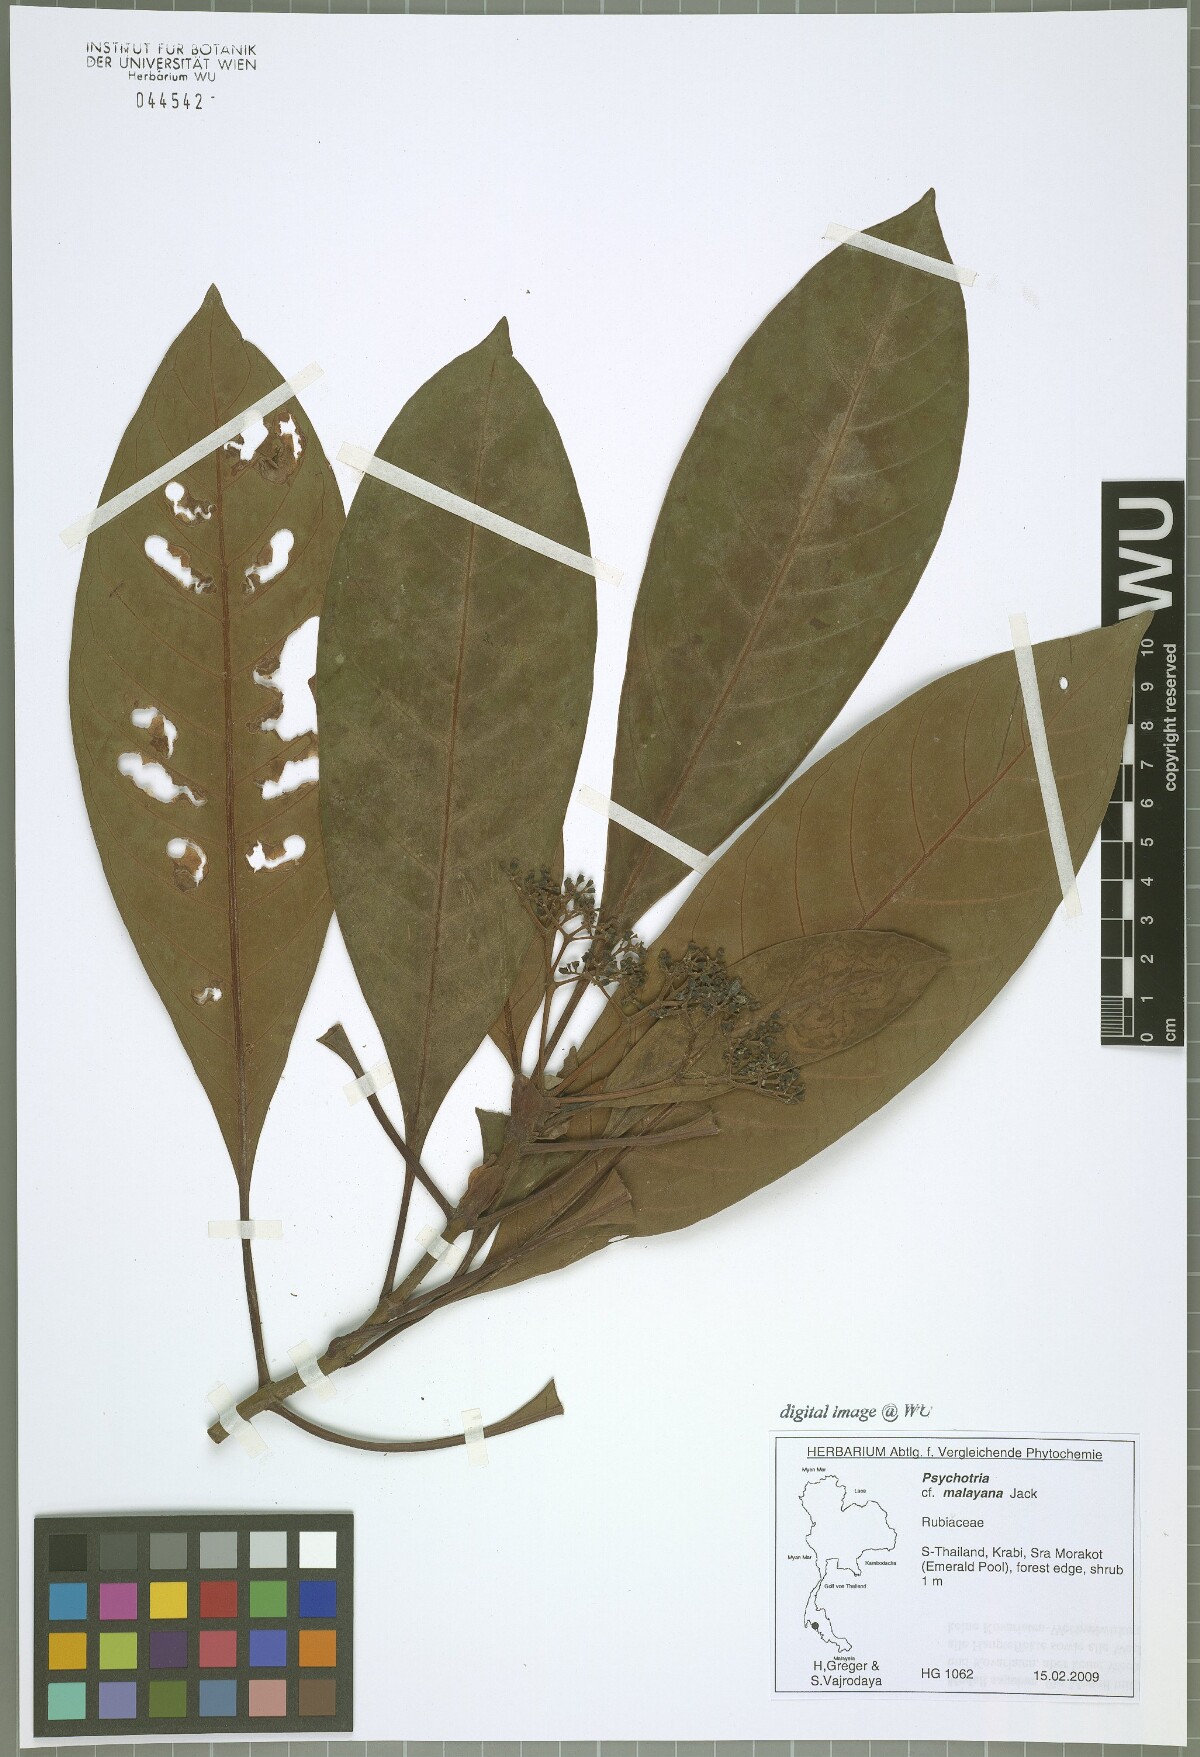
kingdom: Plantae
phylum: Tracheophyta
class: Magnoliopsida
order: Gentianales
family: Rubiaceae
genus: Psychotria
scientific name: Psychotria malayana
